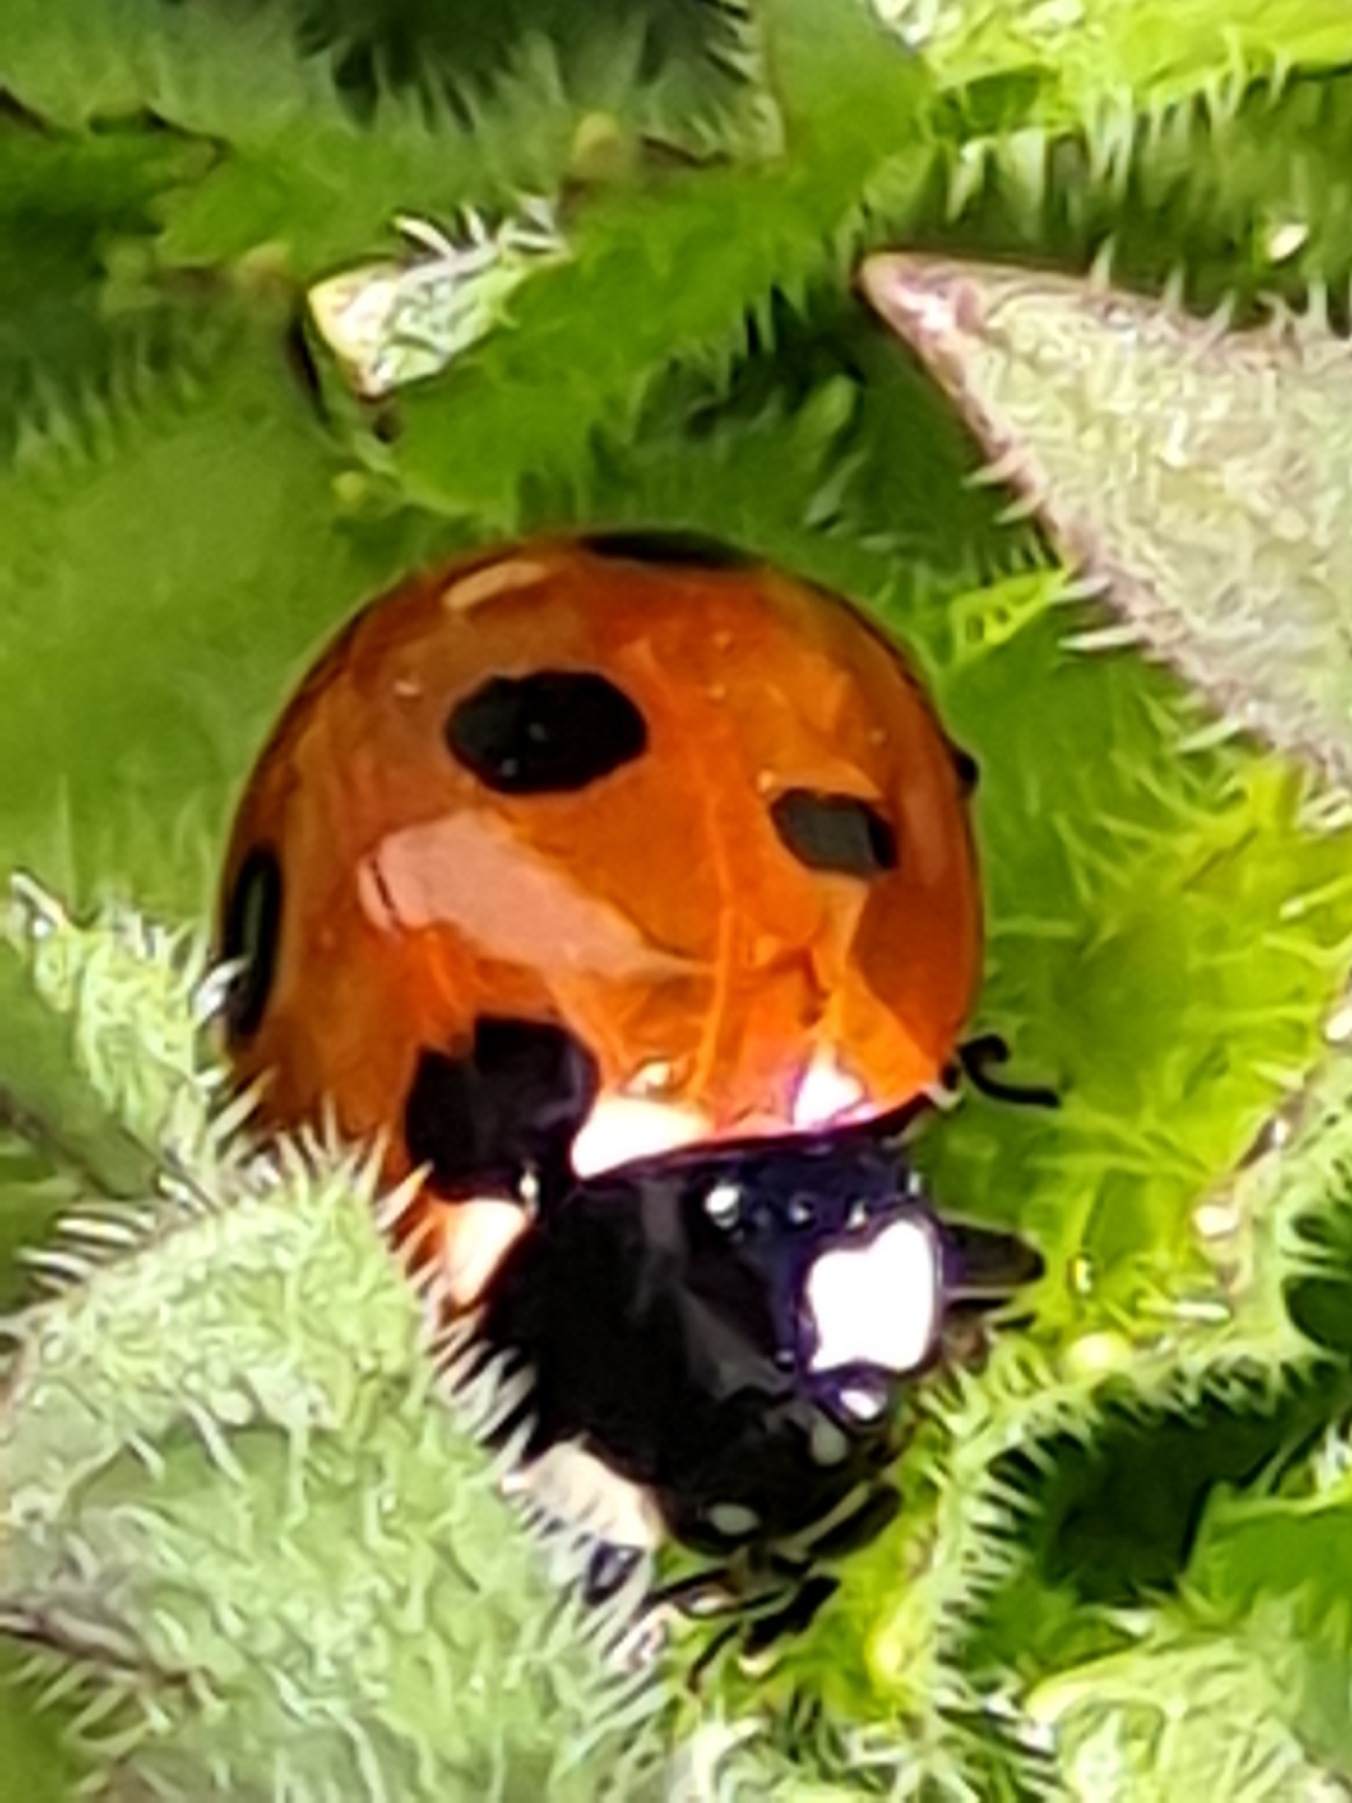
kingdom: Animalia
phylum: Arthropoda
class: Insecta
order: Coleoptera
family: Coccinellidae
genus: Coccinella
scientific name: Coccinella septempunctata
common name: Syvplettet mariehøne
